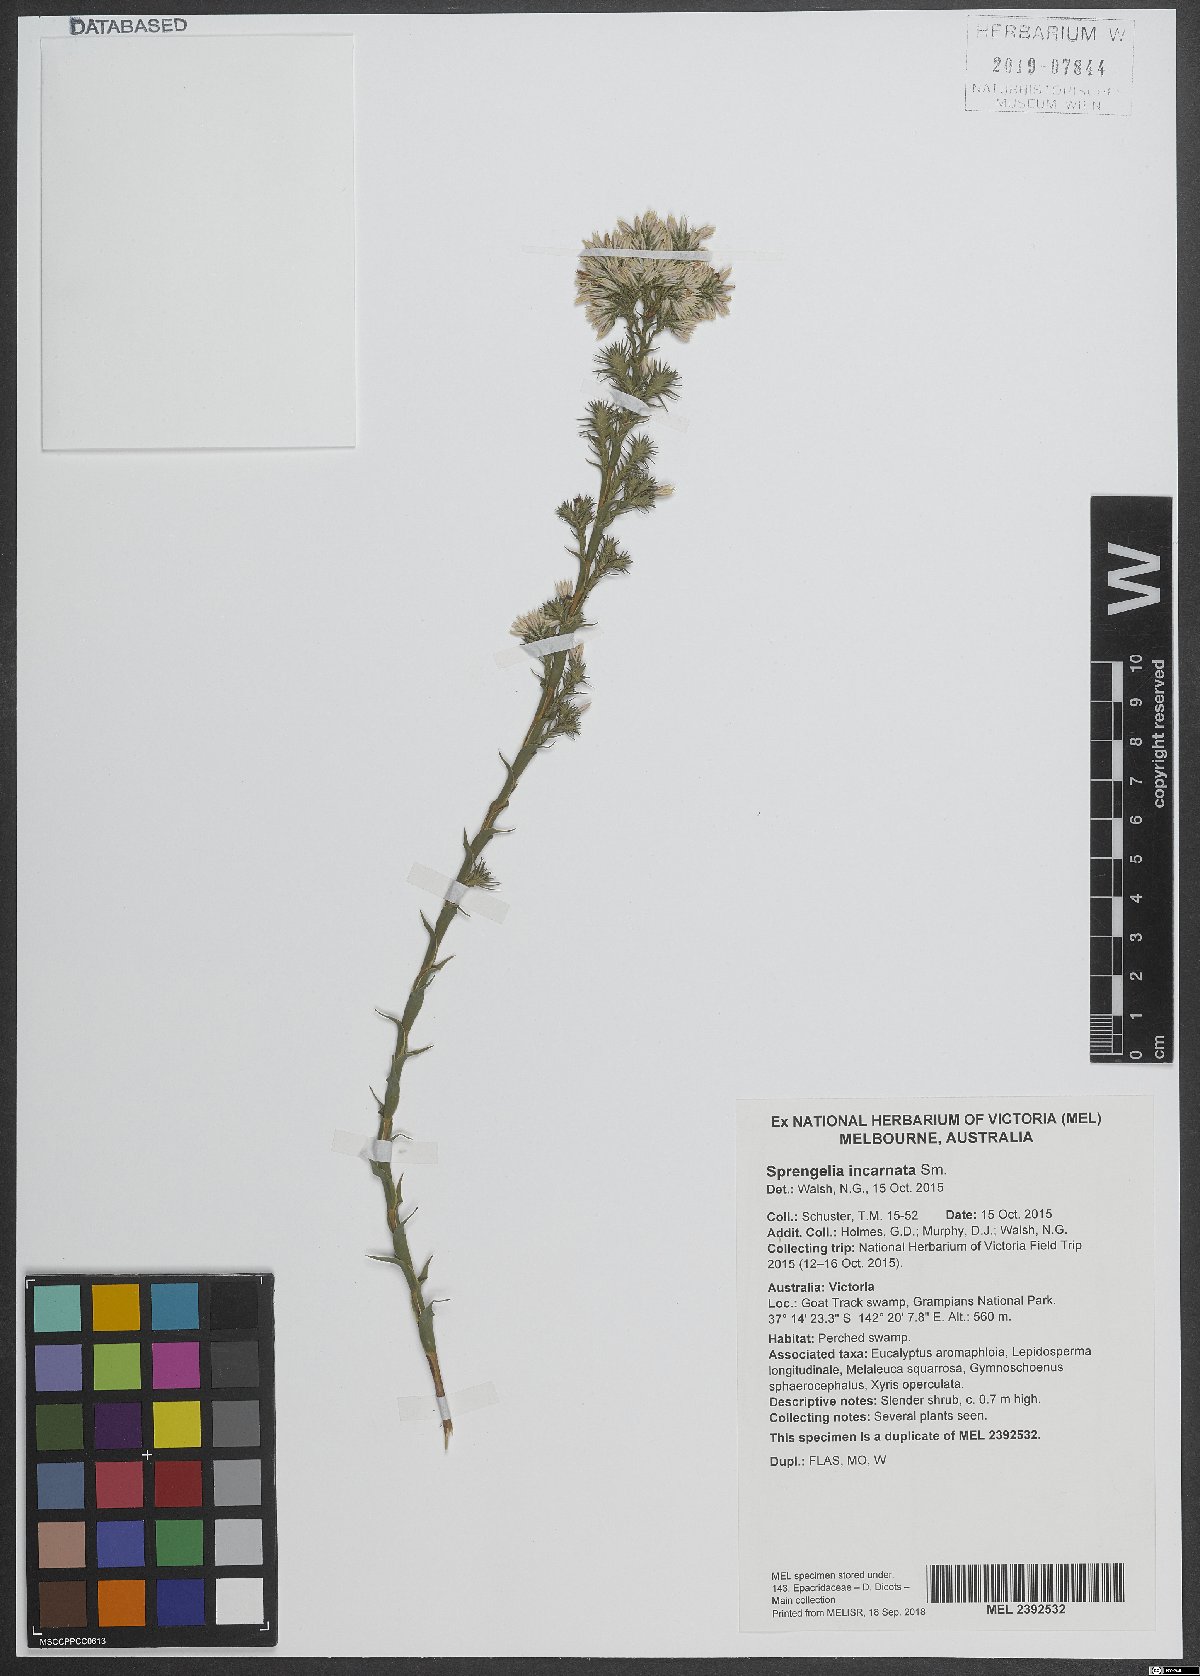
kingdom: Plantae
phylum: Tracheophyta
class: Magnoliopsida
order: Ericales
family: Ericaceae
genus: Sprengelia
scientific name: Sprengelia incarnata
